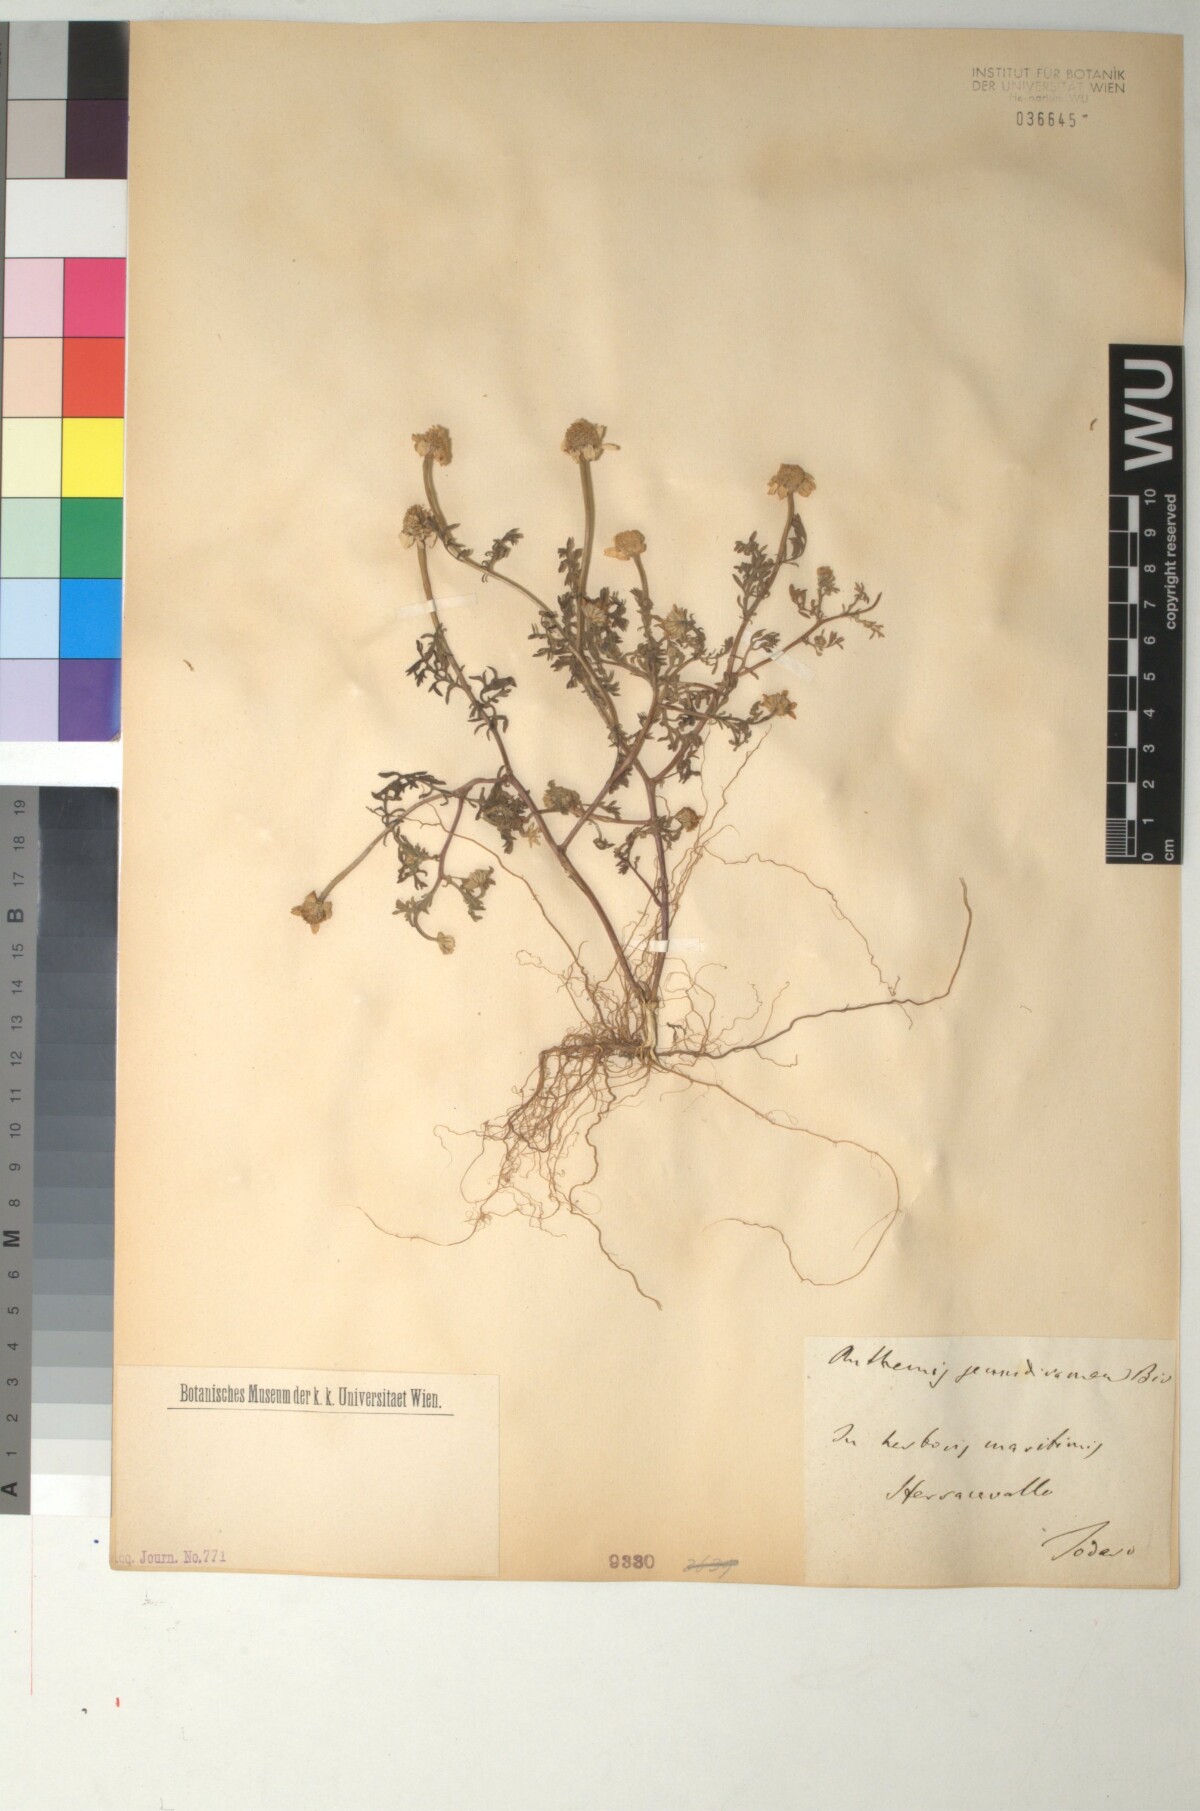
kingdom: Plantae
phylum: Tracheophyta
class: Magnoliopsida
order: Asterales
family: Asteraceae
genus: Anthemis
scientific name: Anthemis secundiramea
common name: Prostrate chamomile
